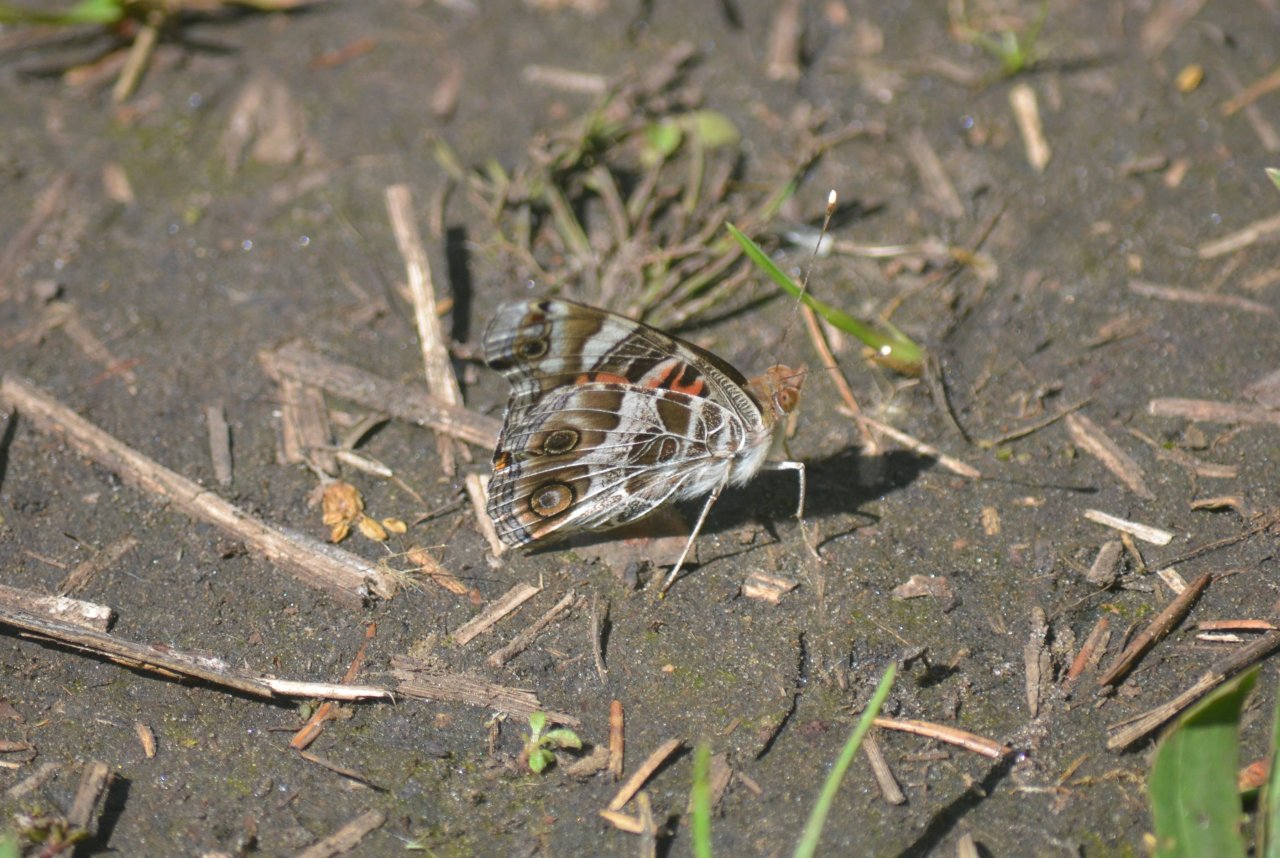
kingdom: Animalia
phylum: Arthropoda
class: Insecta
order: Lepidoptera
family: Nymphalidae
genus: Vanessa
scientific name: Vanessa virginiensis
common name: American Lady
